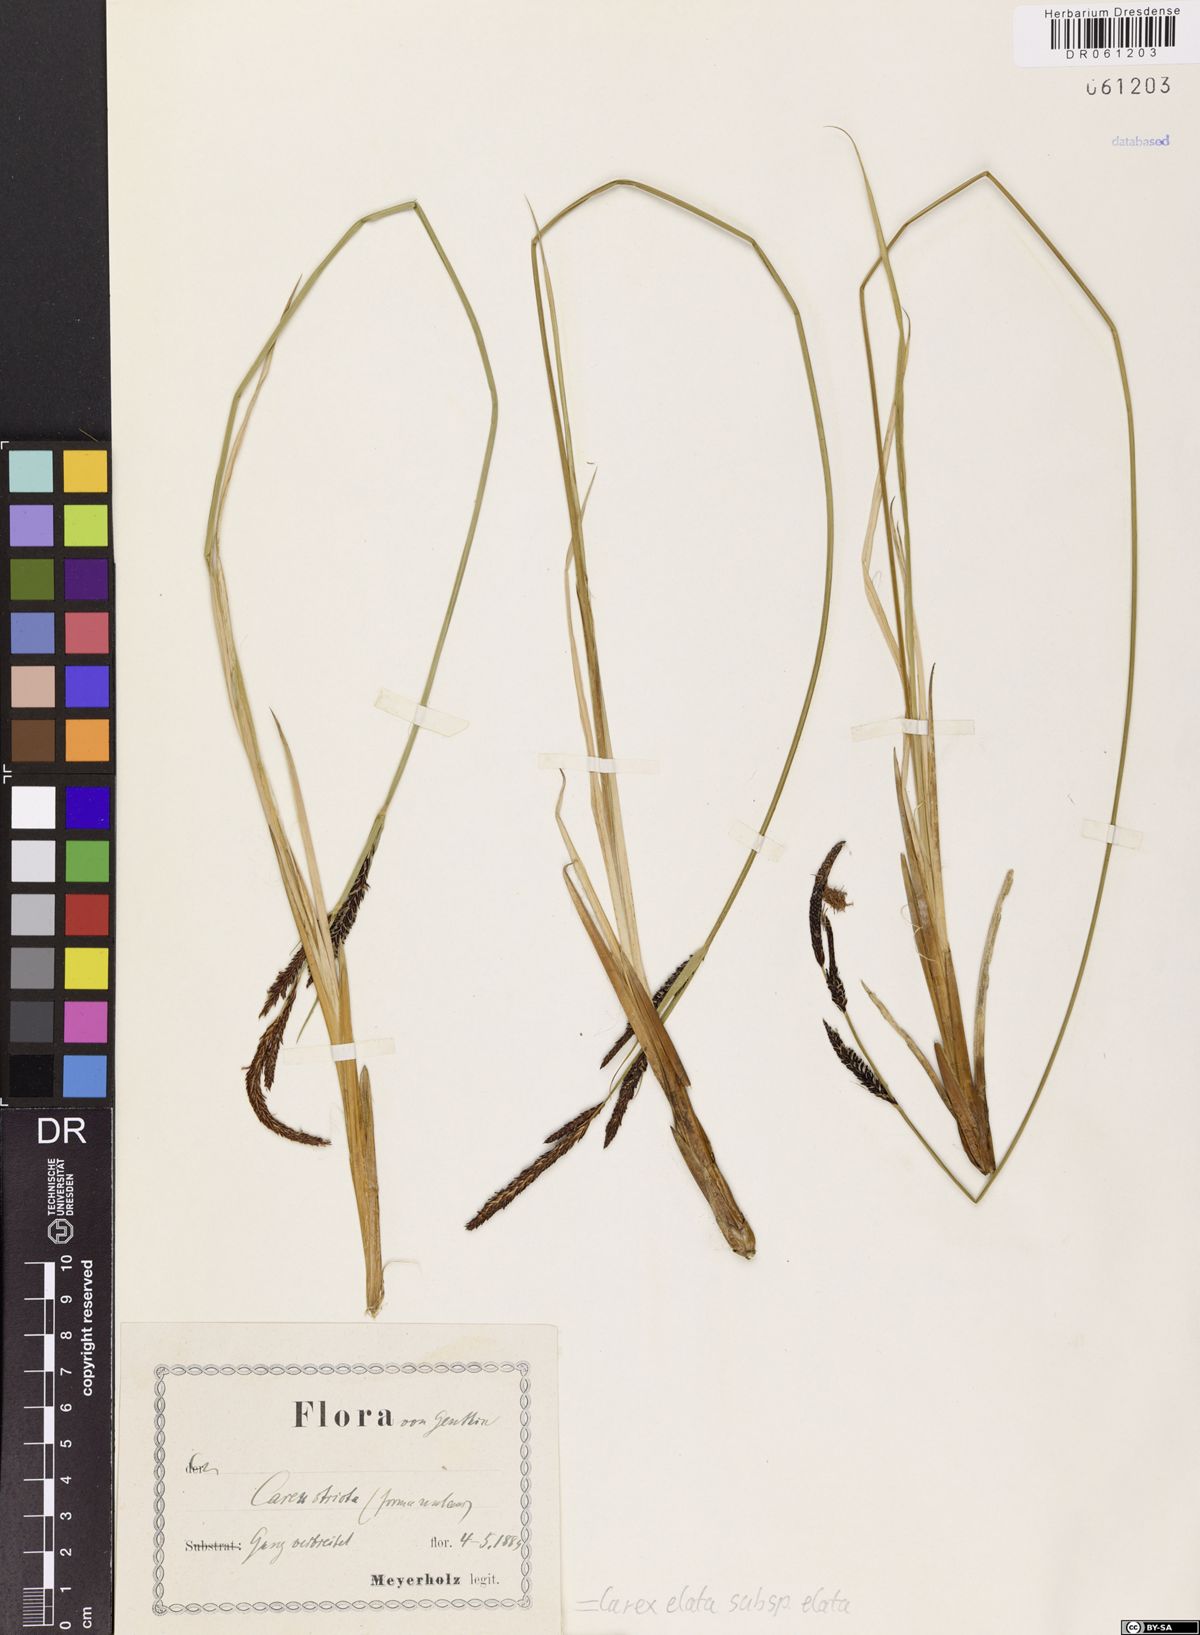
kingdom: Plantae
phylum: Tracheophyta
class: Liliopsida
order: Poales
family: Cyperaceae
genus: Carex
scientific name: Carex elata
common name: Tufted sedge
